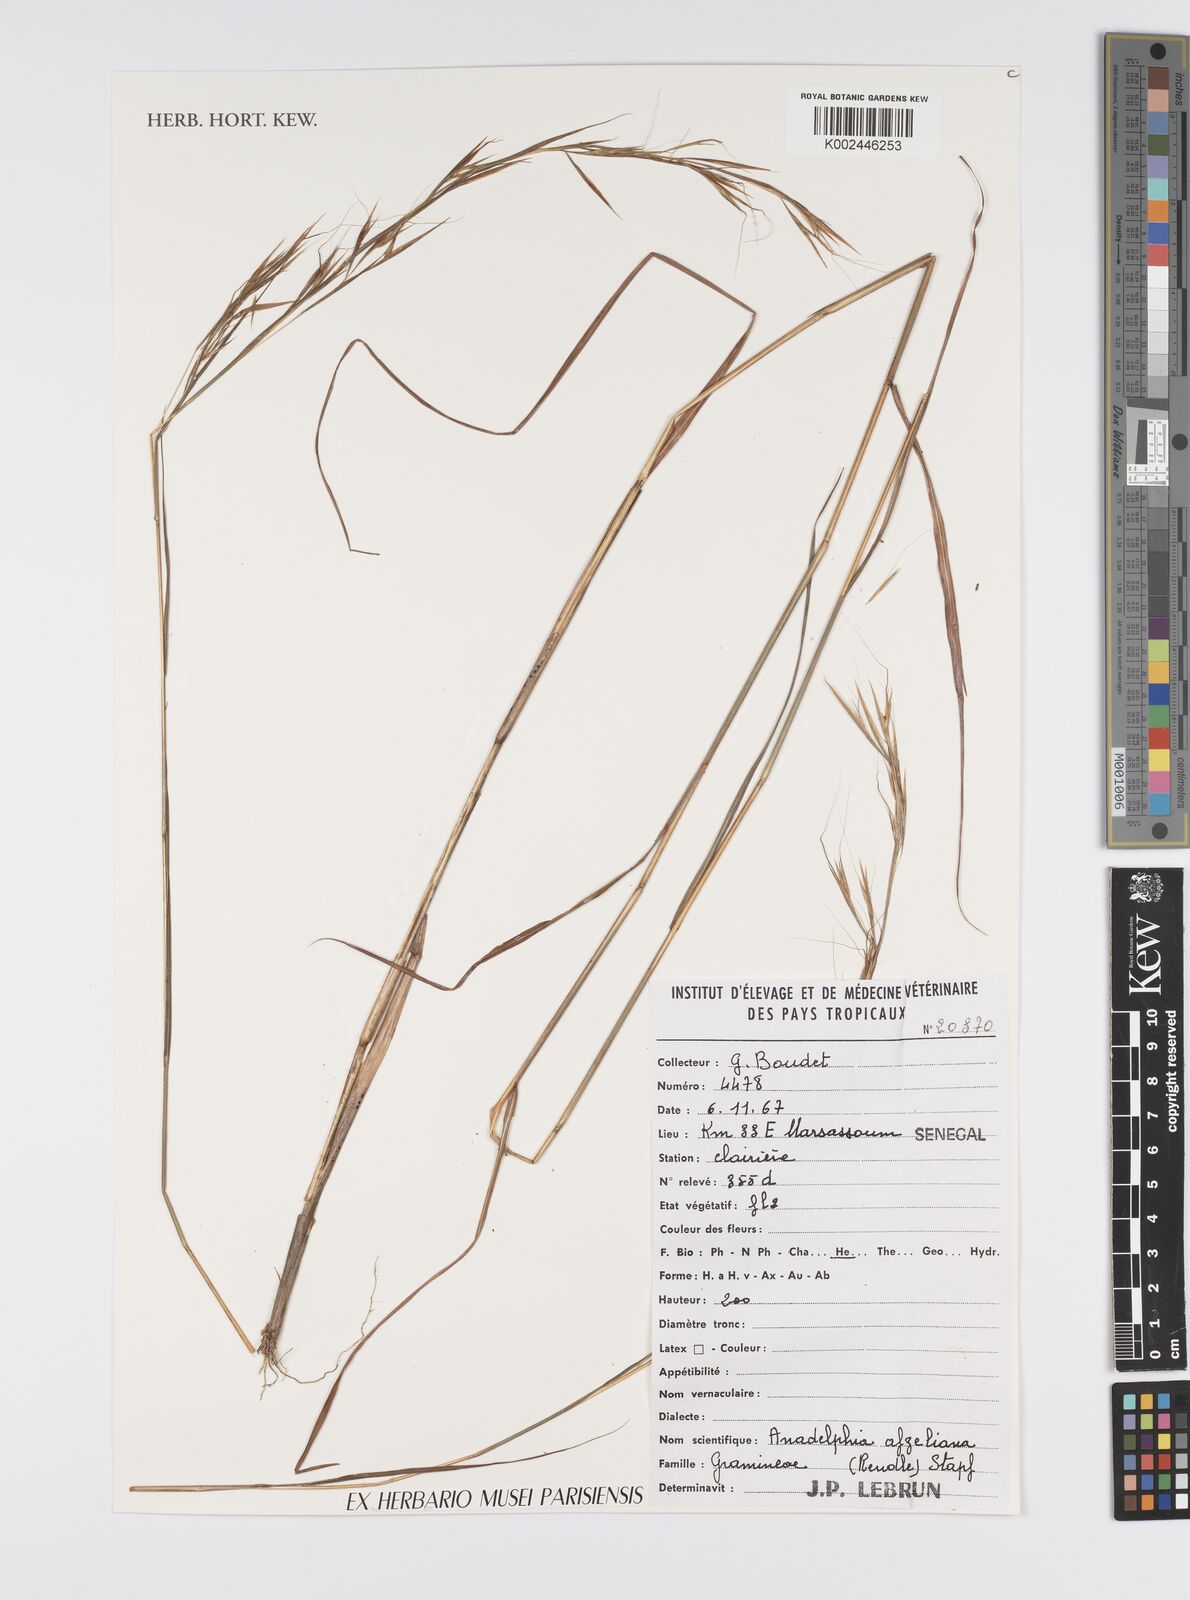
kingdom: Plantae
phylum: Tracheophyta
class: Liliopsida
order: Poales
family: Poaceae
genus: Anadelphia
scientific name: Anadelphia afzeliana
